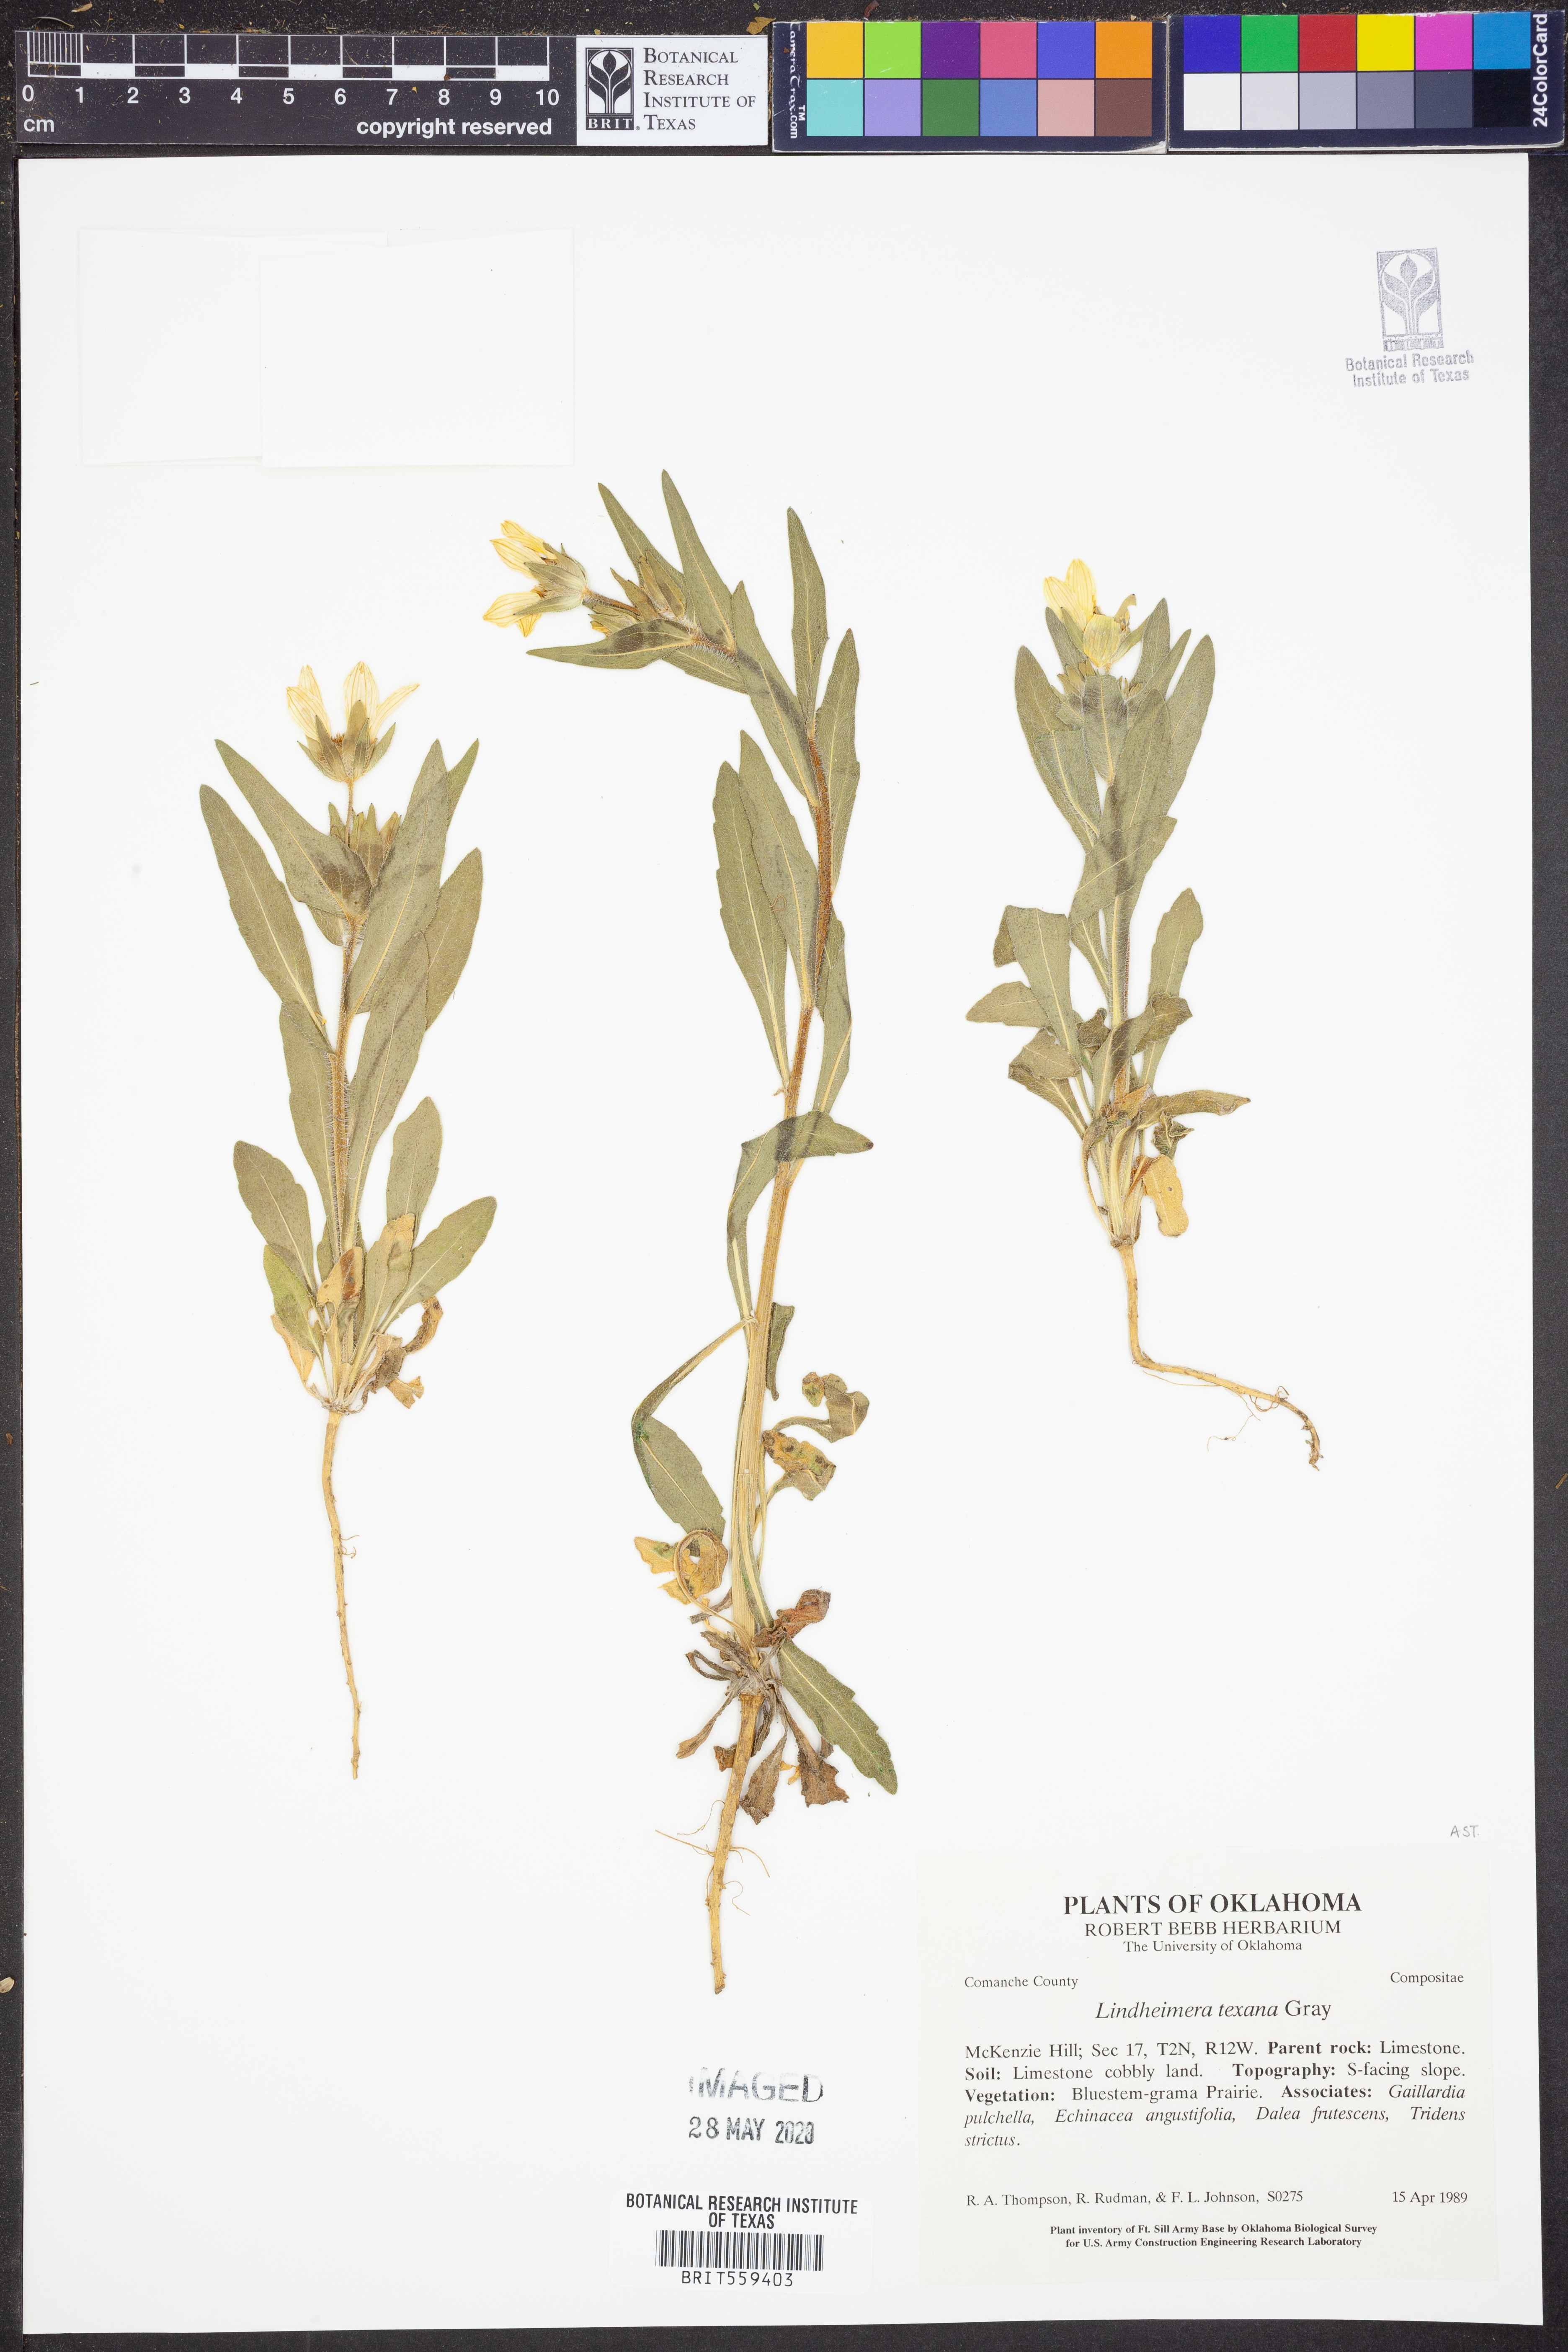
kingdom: Plantae
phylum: Tracheophyta
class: Magnoliopsida
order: Asterales
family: Asteraceae
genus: Lindheimera
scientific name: Lindheimera texana
